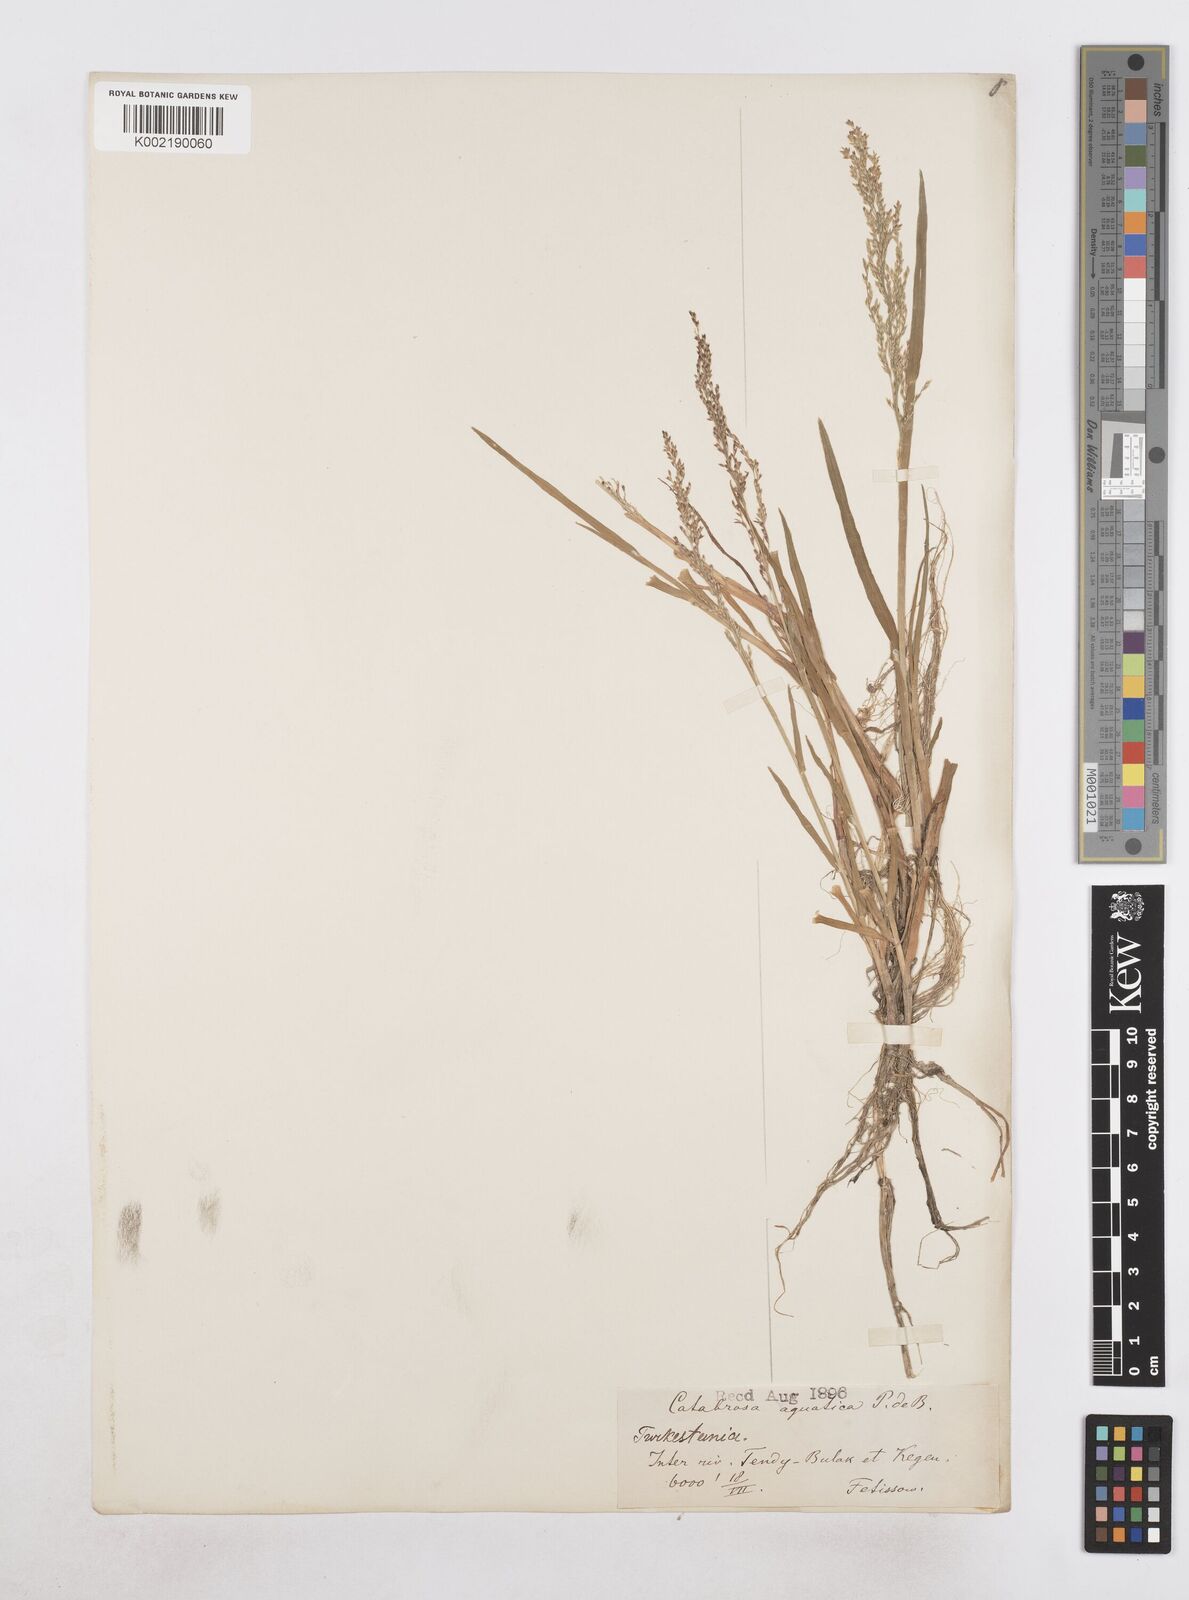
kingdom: Plantae
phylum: Tracheophyta
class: Liliopsida
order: Poales
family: Poaceae
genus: Catabrosa
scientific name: Catabrosa aquatica
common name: Whorl-grass
